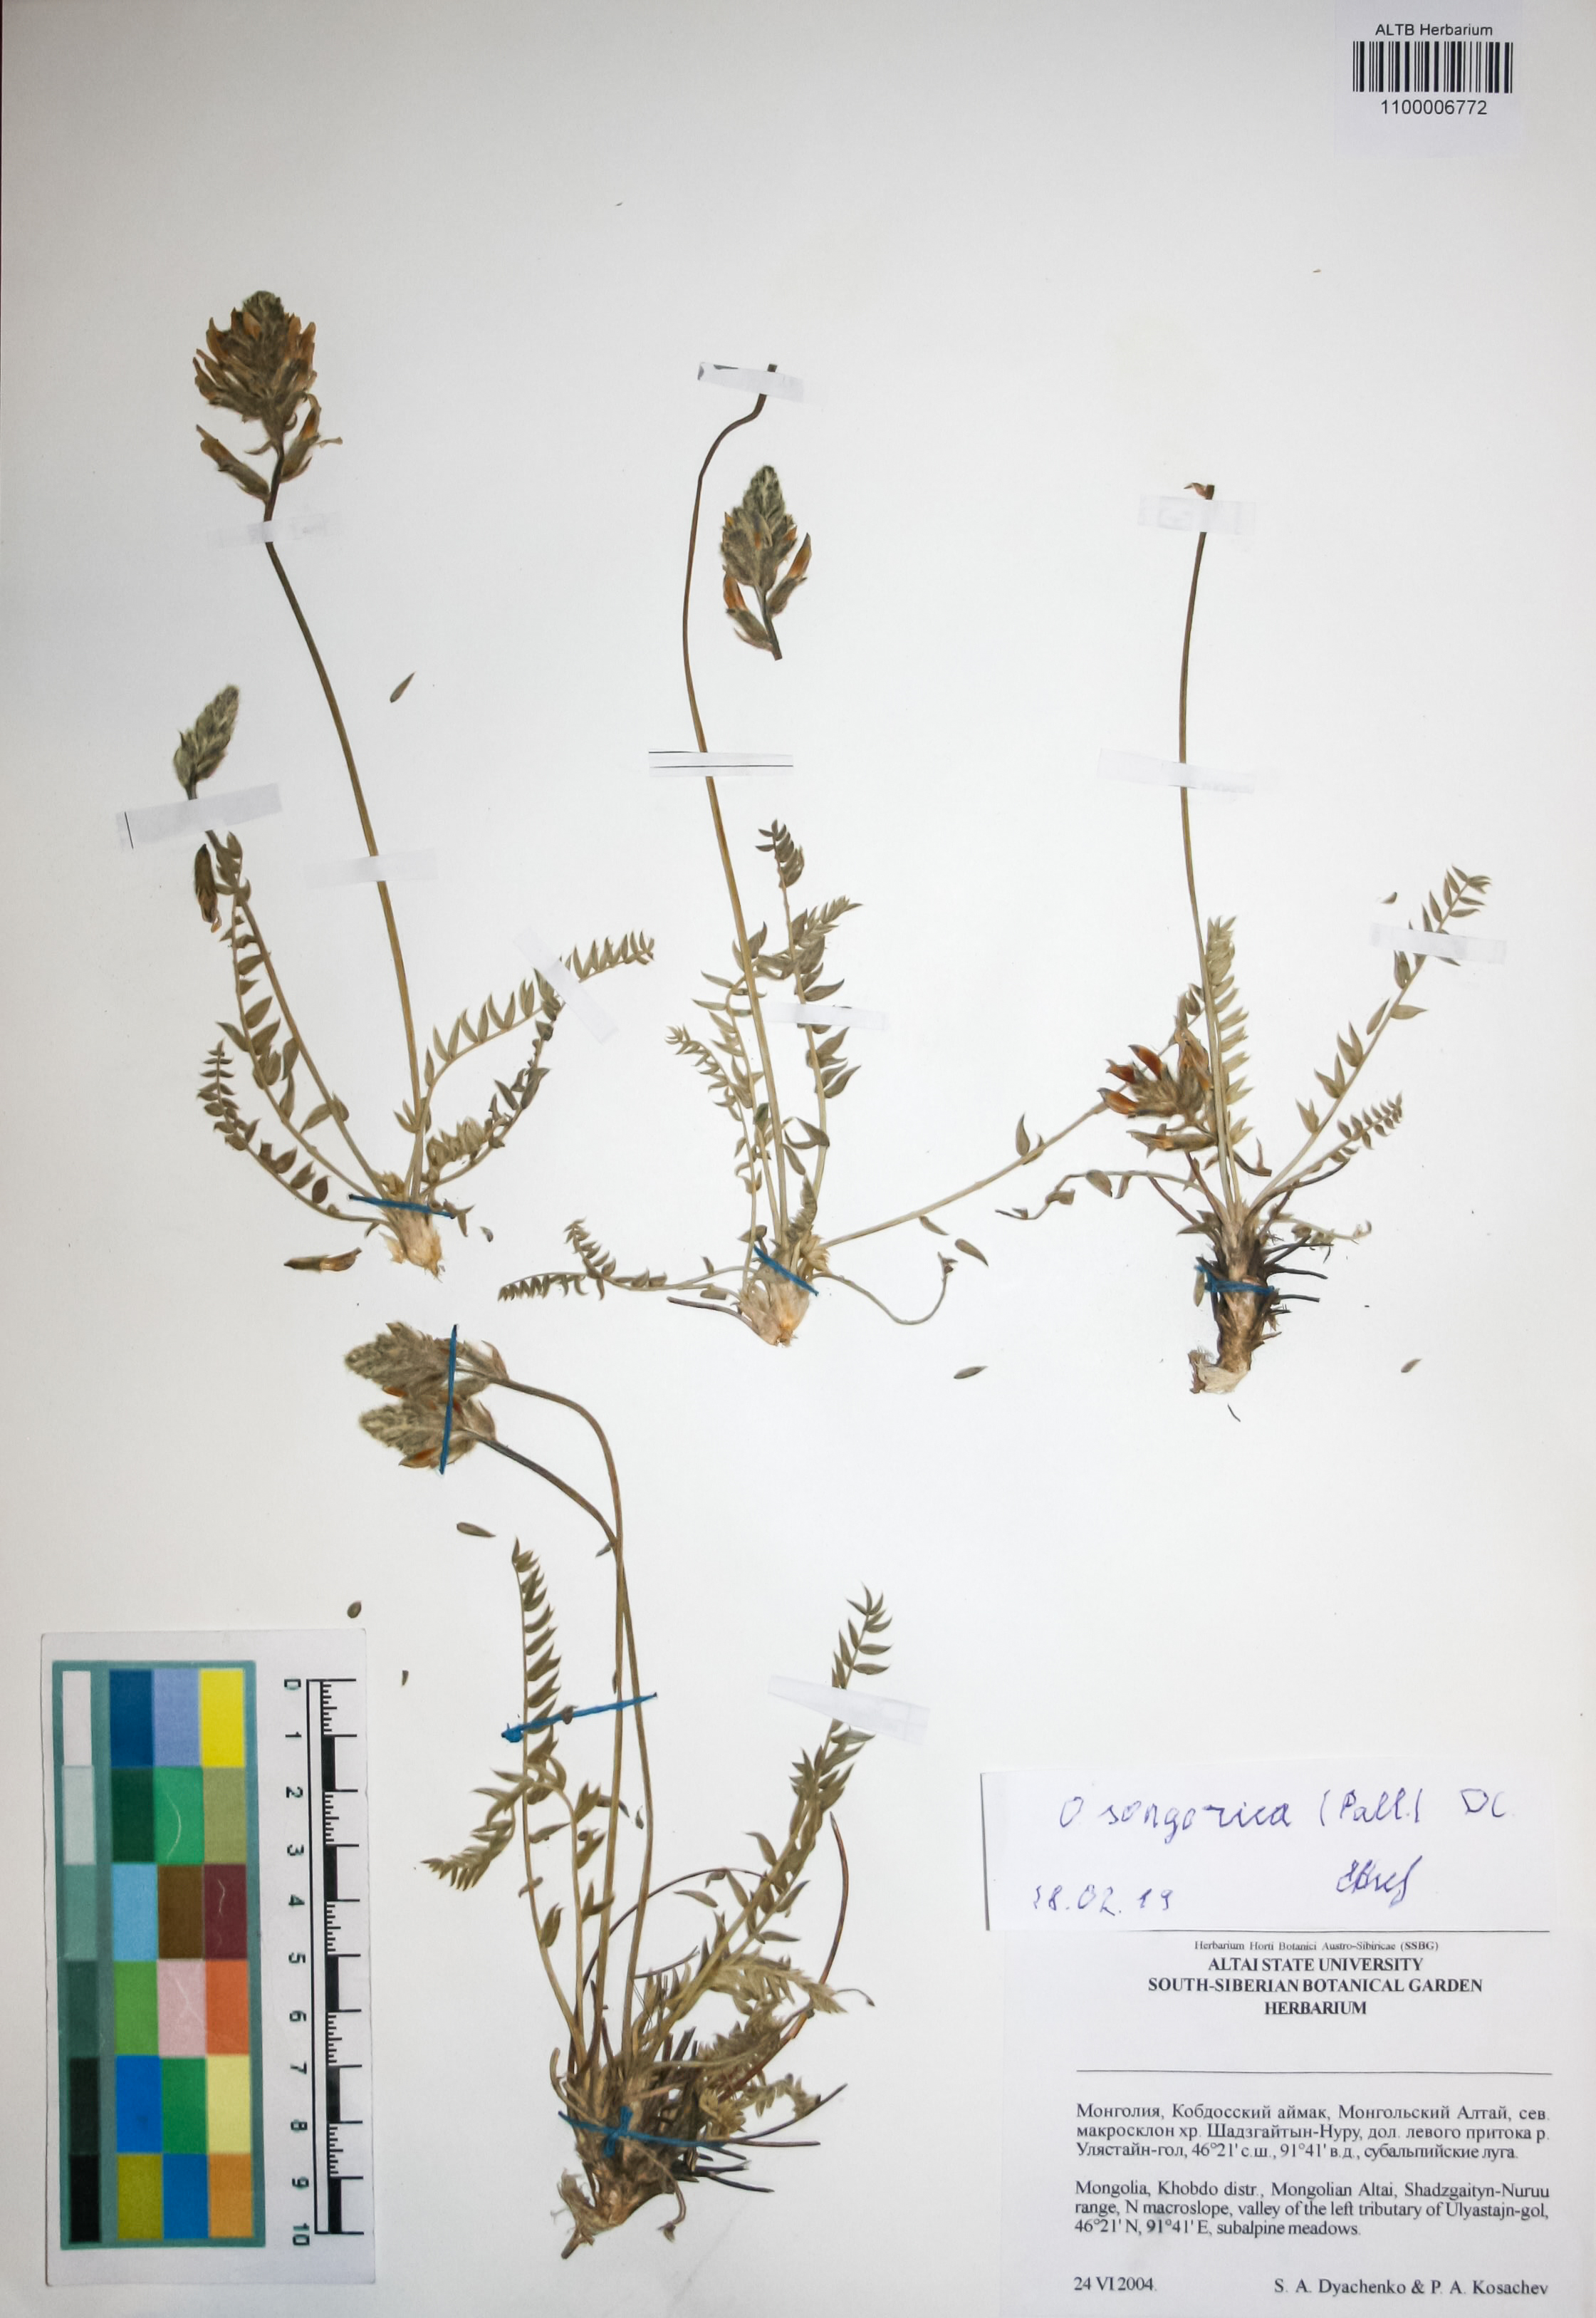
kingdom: Plantae
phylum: Tracheophyta
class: Magnoliopsida
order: Fabales
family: Fabaceae
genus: Oxytropis
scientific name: Oxytropis songorica
